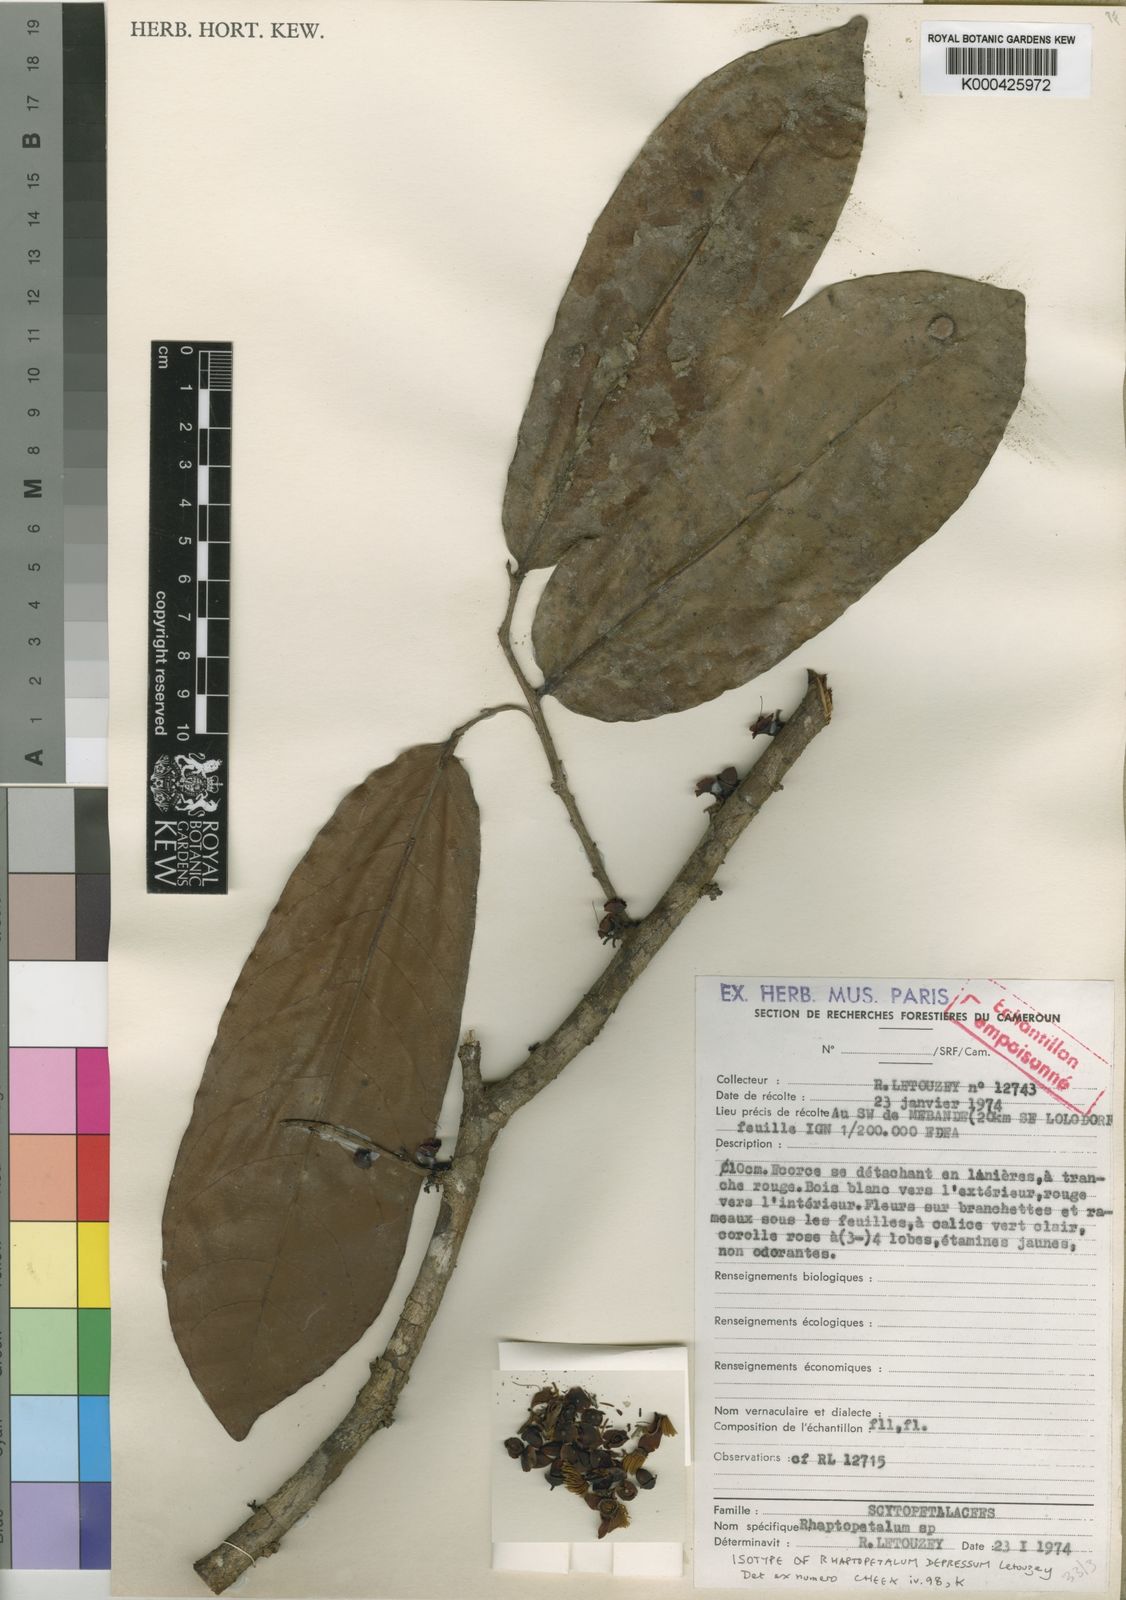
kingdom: Plantae
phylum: Tracheophyta
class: Magnoliopsida
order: Ericales
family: Lecythidaceae
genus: Rhaptopetalum
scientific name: Rhaptopetalum depressum
